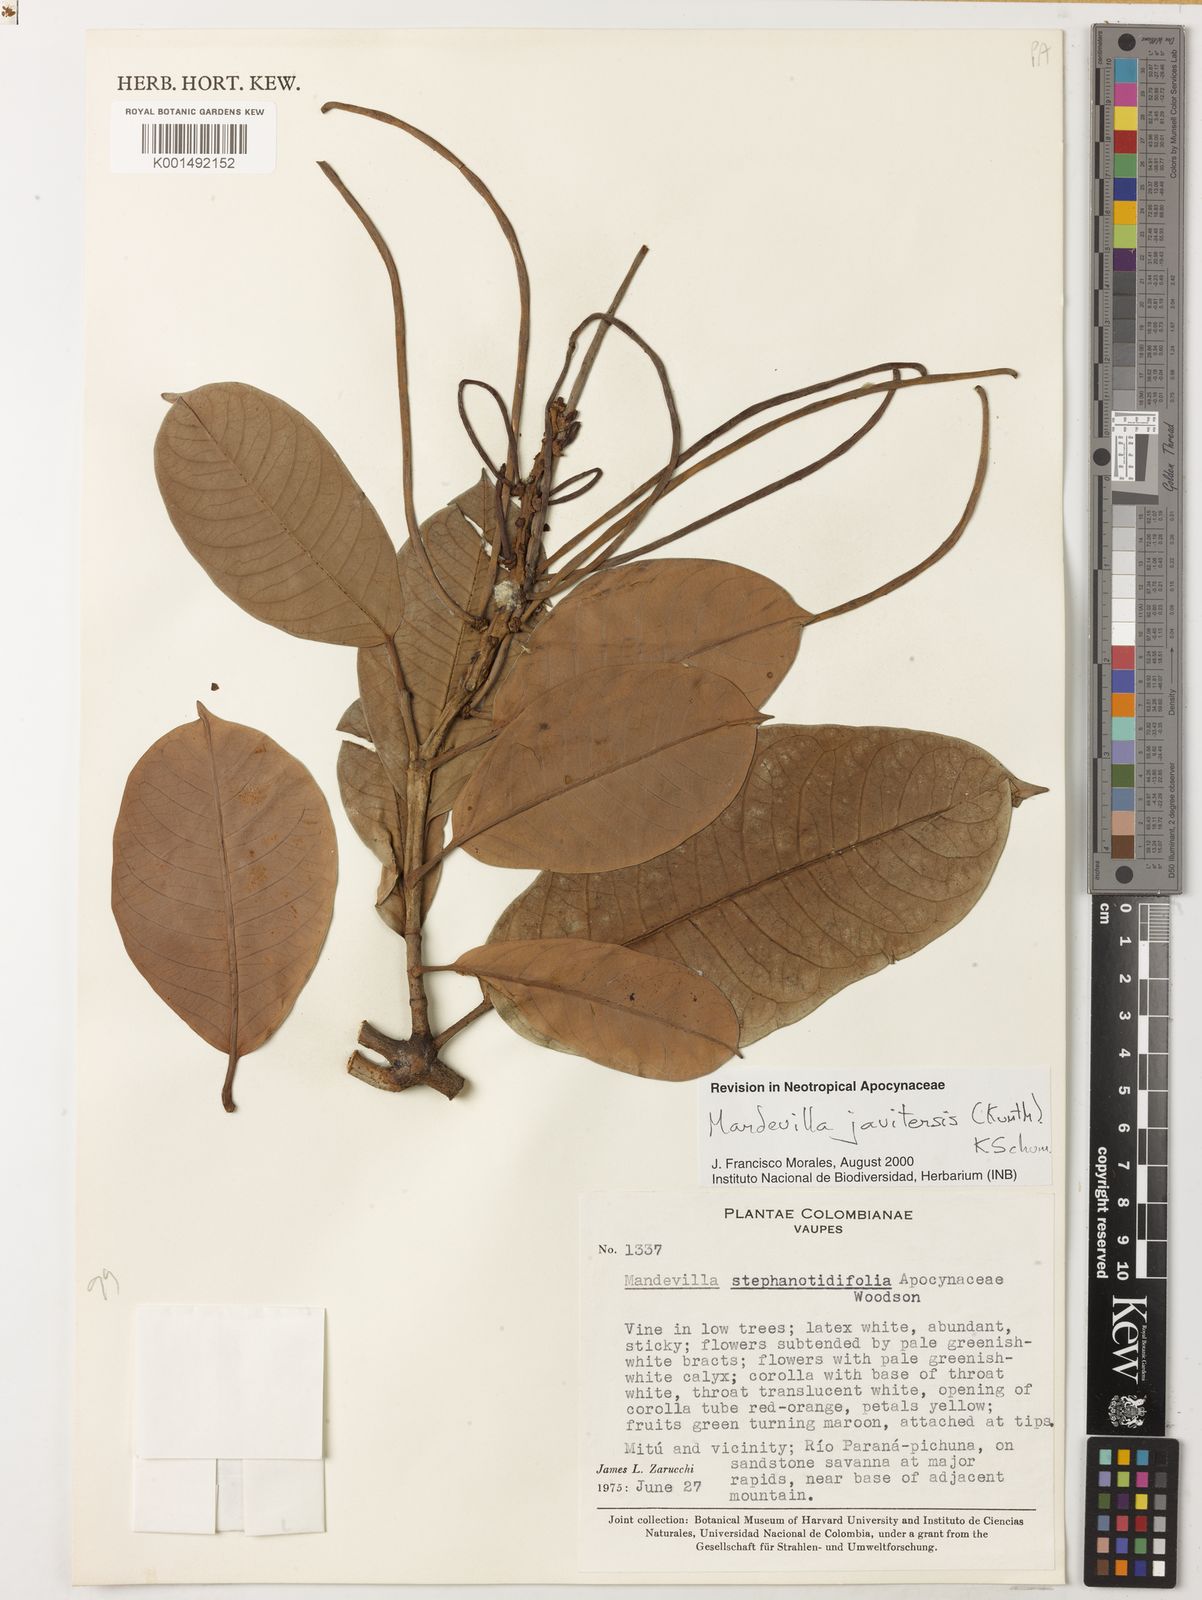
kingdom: Plantae
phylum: Tracheophyta
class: Magnoliopsida
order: Gentianales
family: Apocynaceae
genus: Mandevilla
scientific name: Mandevilla javitensis
